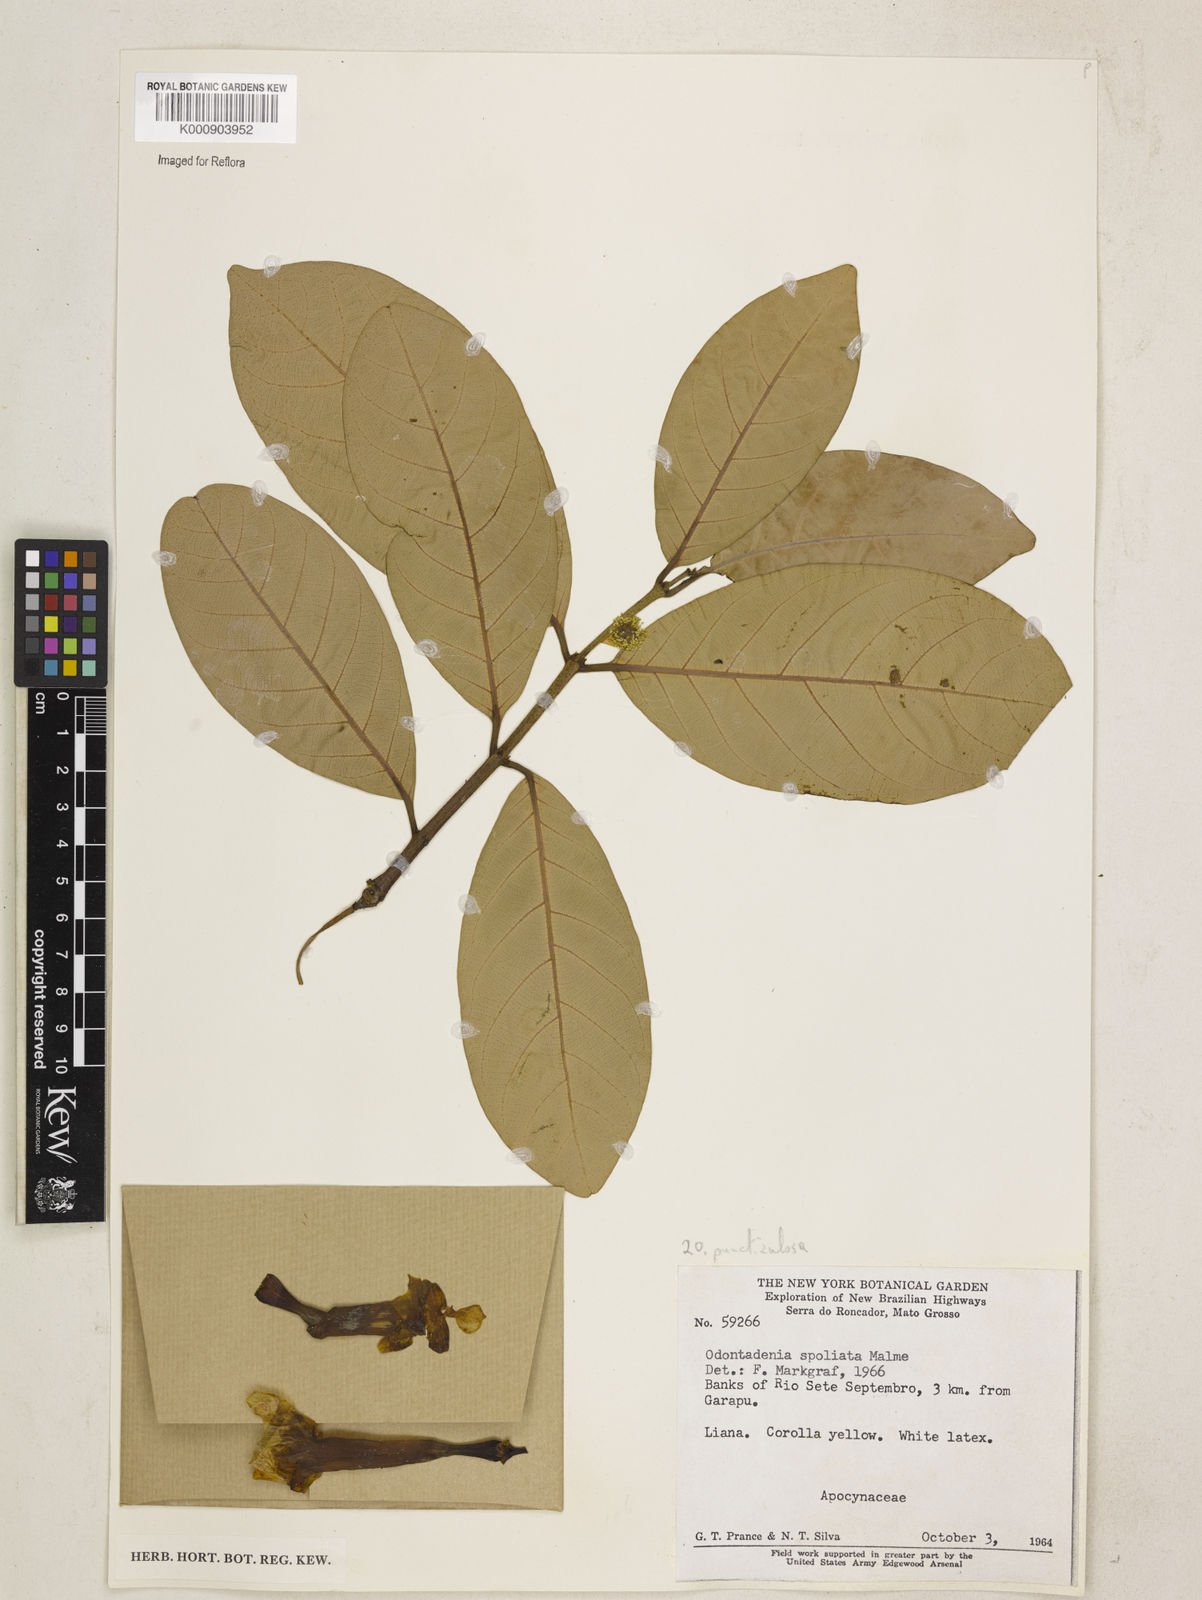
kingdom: Plantae
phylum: Tracheophyta
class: Magnoliopsida
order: Gentianales
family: Apocynaceae
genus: Odontadenia
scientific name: Odontadenia puncticulosa
